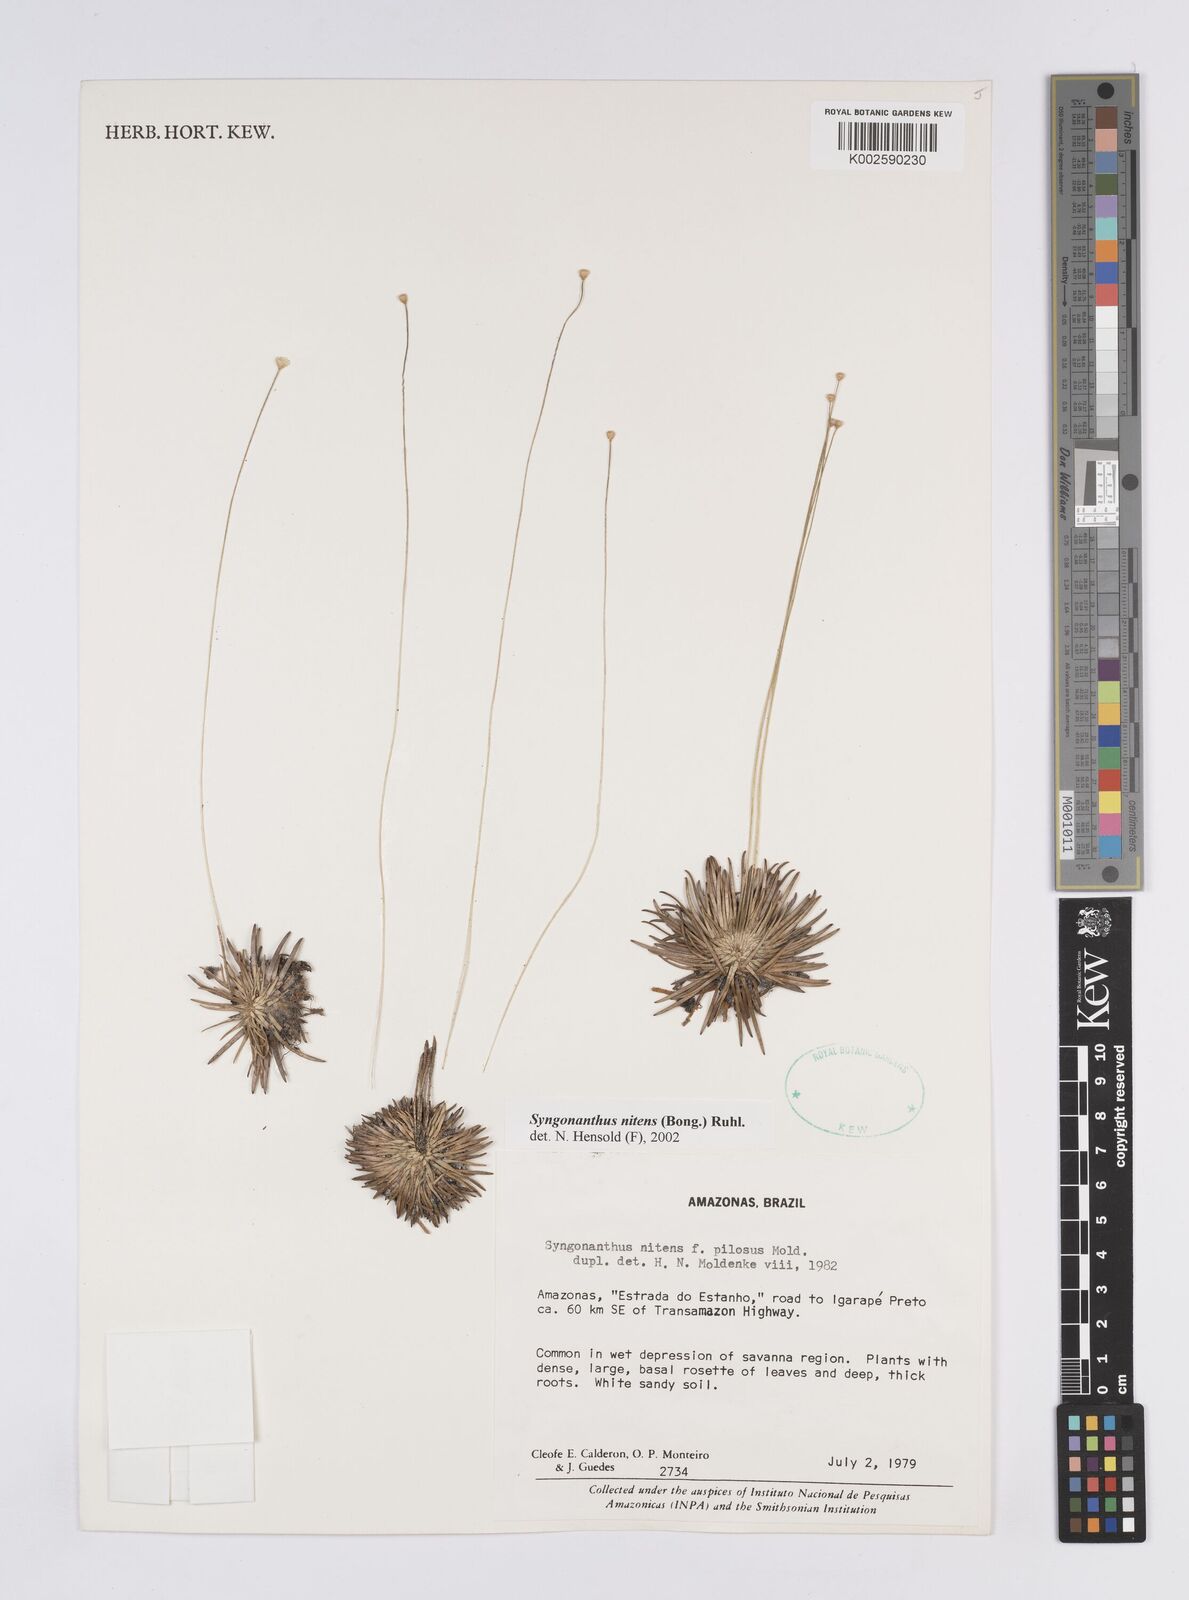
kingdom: Plantae
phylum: Tracheophyta
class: Liliopsida
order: Poales
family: Eriocaulaceae
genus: Syngonanthus
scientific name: Syngonanthus nitens
